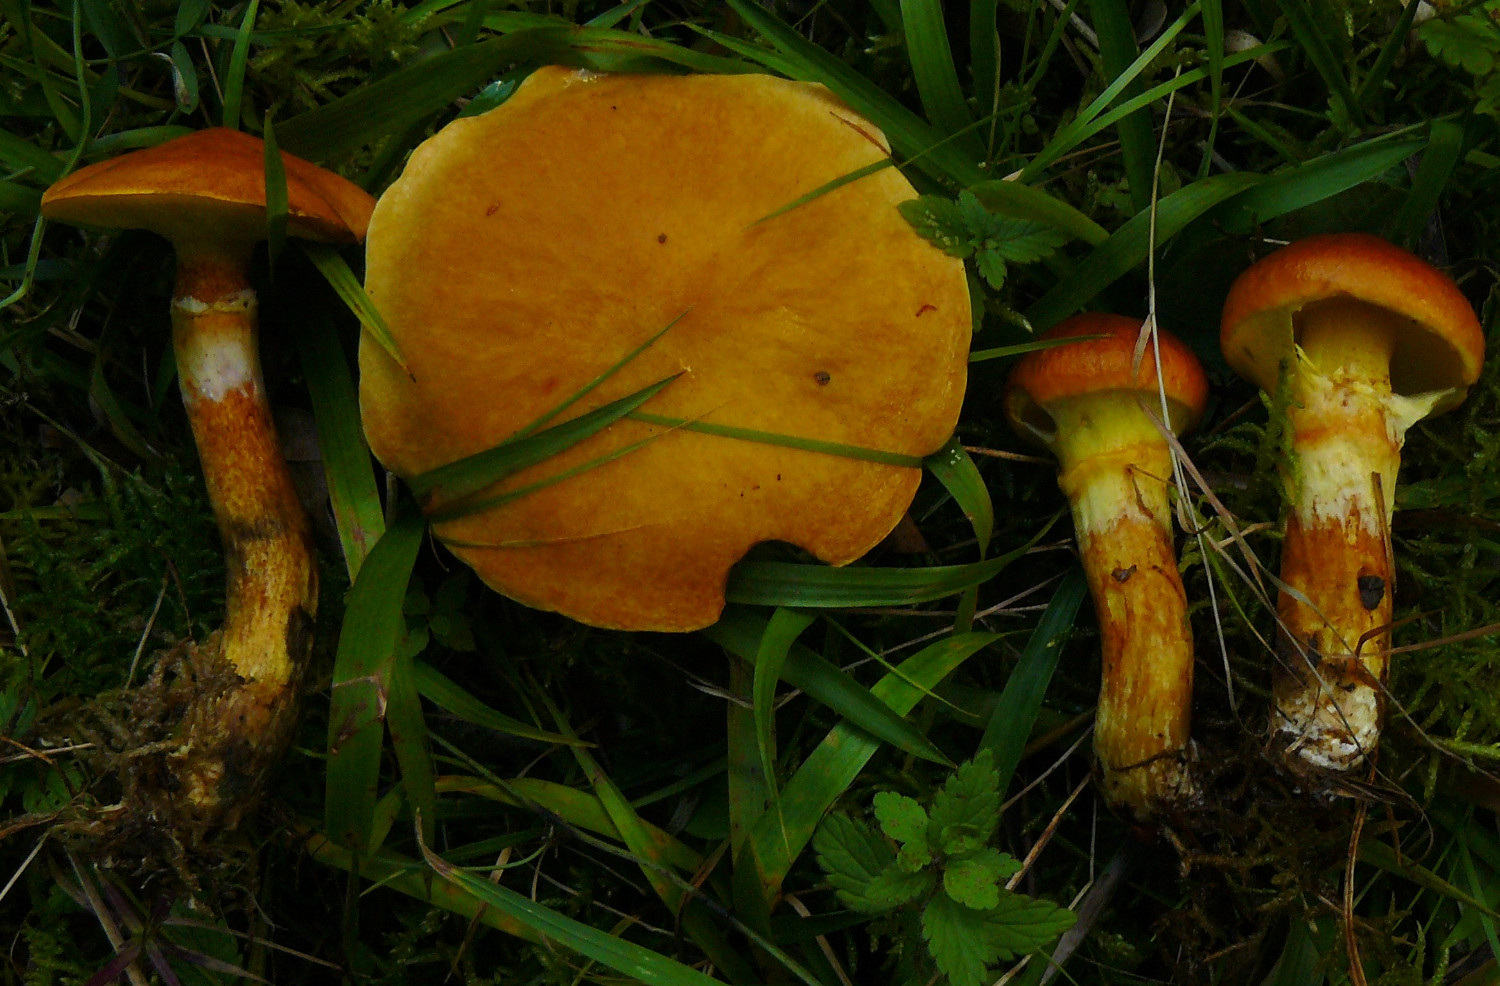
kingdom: Fungi
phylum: Basidiomycota
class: Agaricomycetes
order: Boletales
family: Suillaceae
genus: Suillus
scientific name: Suillus grevillei
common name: lærke-slimrørhat
